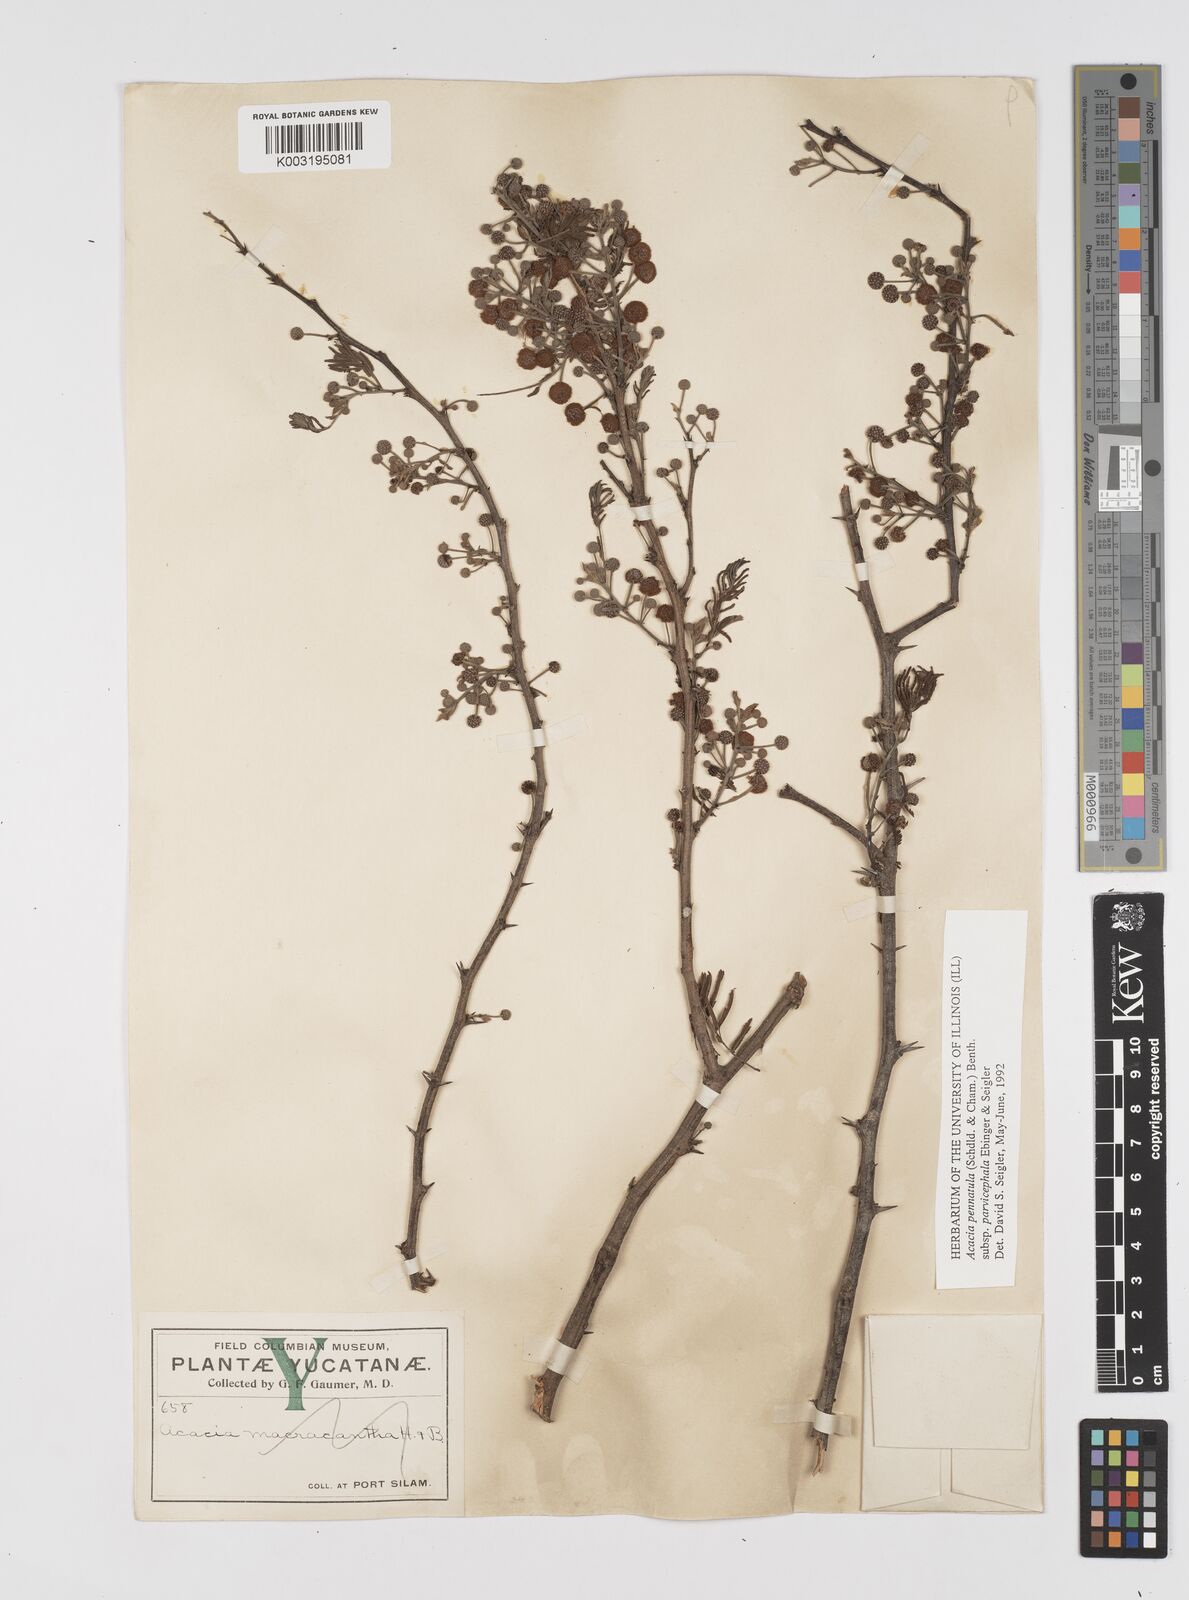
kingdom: Plantae
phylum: Tracheophyta
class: Magnoliopsida
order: Fabales
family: Fabaceae
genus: Vachellia
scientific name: Vachellia campeachiana
